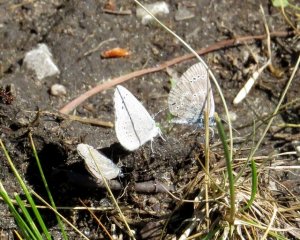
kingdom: Animalia
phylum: Arthropoda
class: Insecta
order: Lepidoptera
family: Lycaenidae
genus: Glaucopsyche
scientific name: Glaucopsyche lygdamus
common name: Silvery Blue
